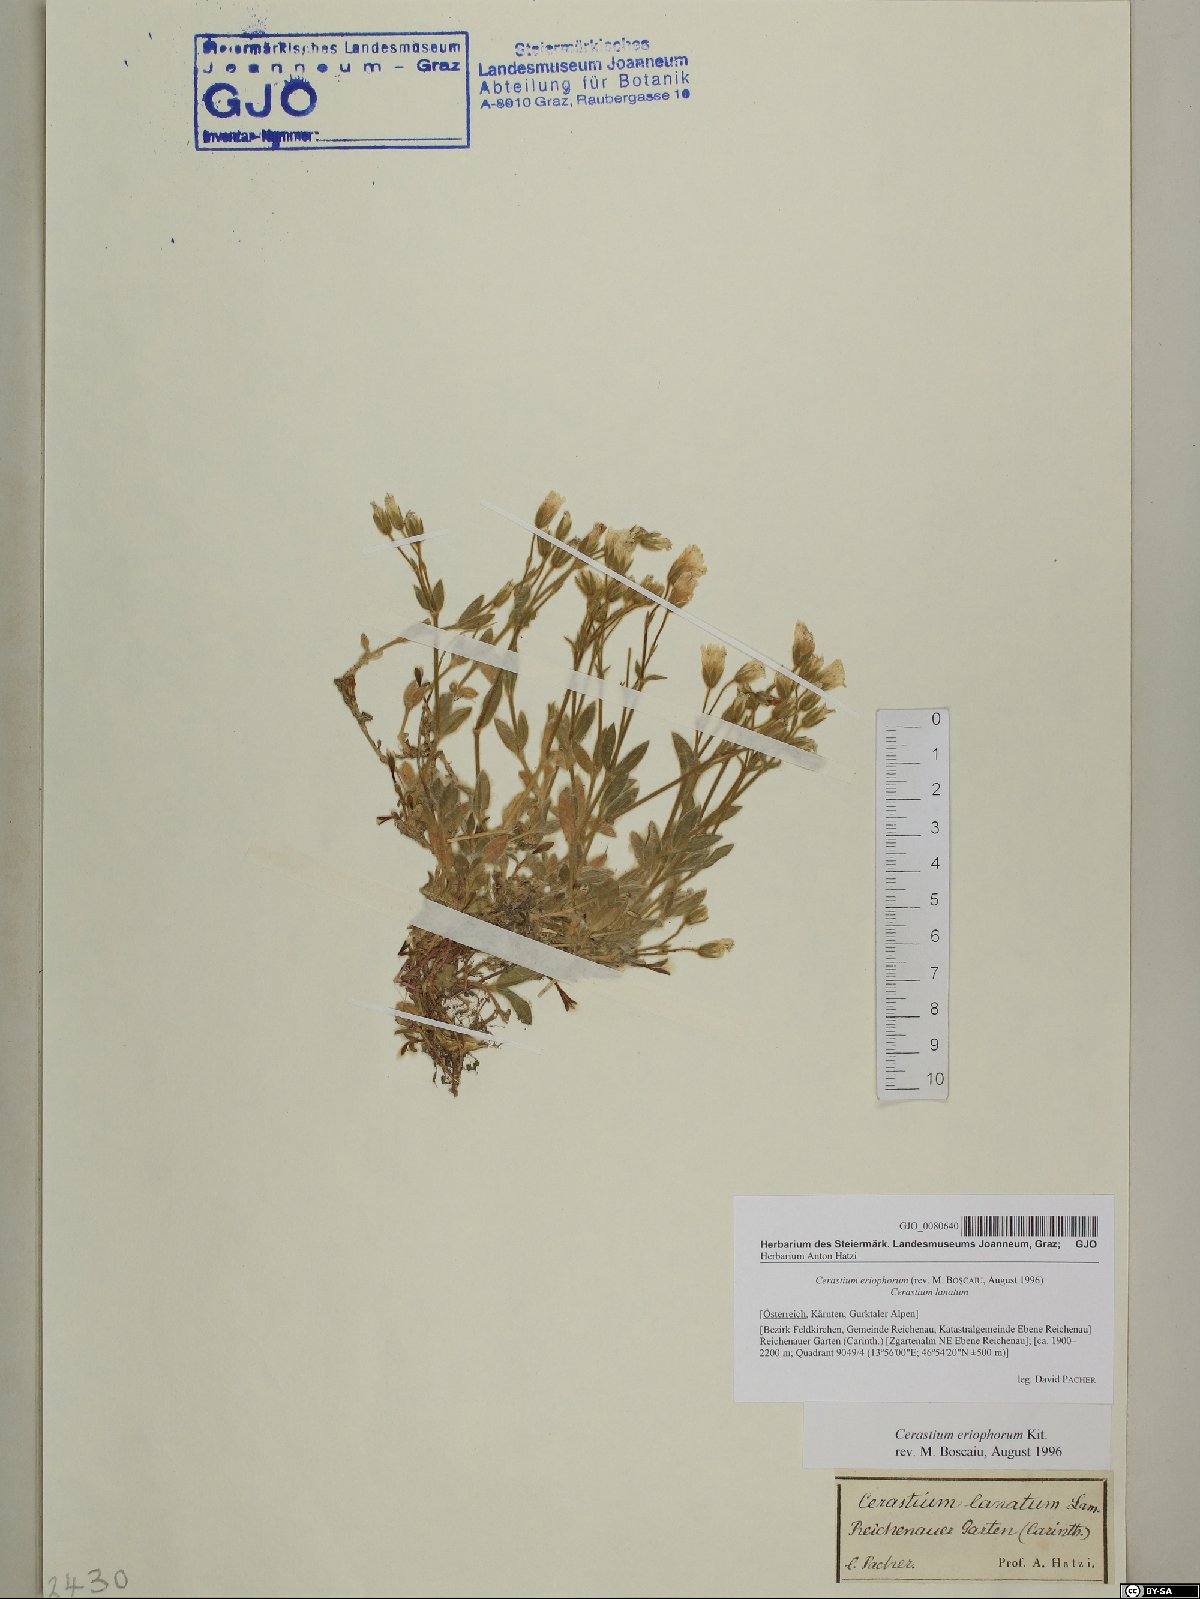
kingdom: Plantae
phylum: Tracheophyta
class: Magnoliopsida
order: Caryophyllales
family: Caryophyllaceae
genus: Cerastium
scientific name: Cerastium eriophorum
